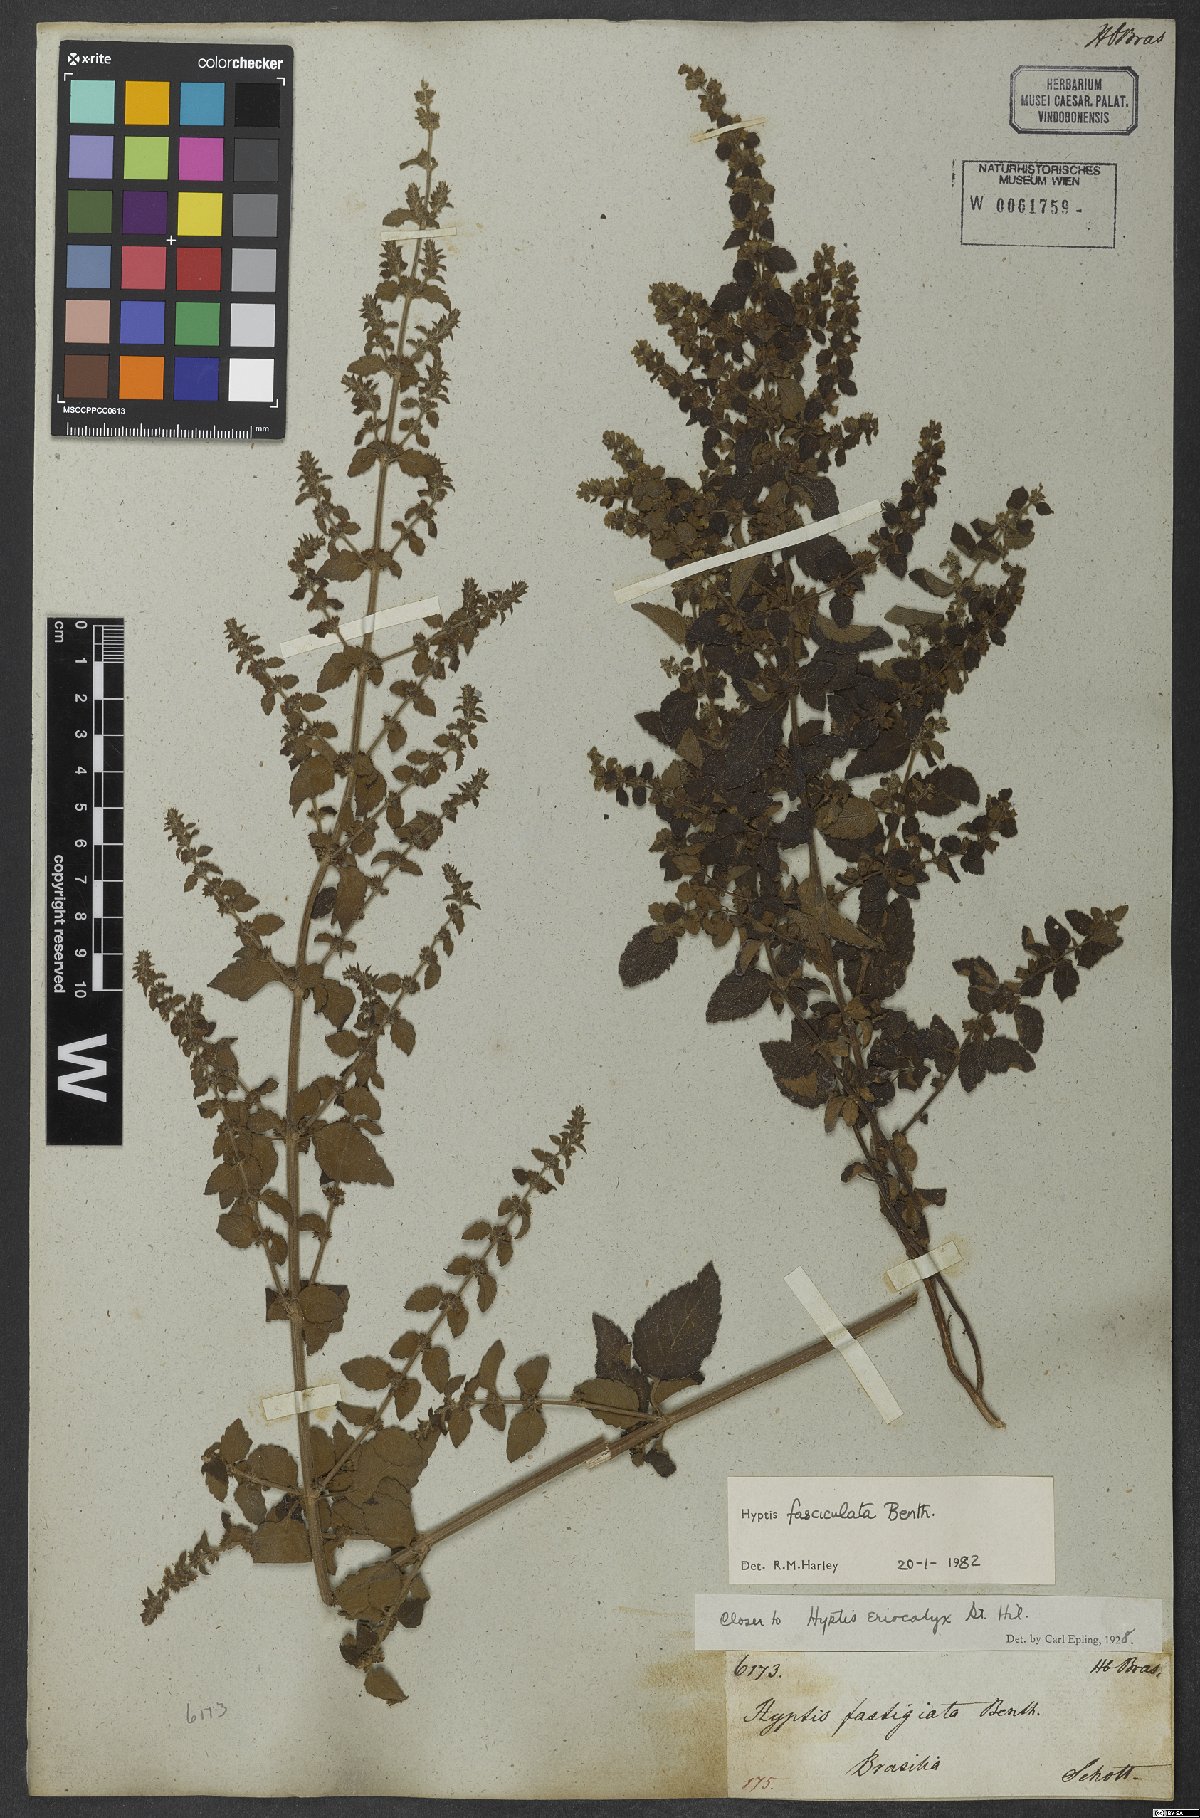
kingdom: Plantae
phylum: Tracheophyta
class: Magnoliopsida
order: Lamiales
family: Lamiaceae
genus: Condea
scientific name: Condea undulata
